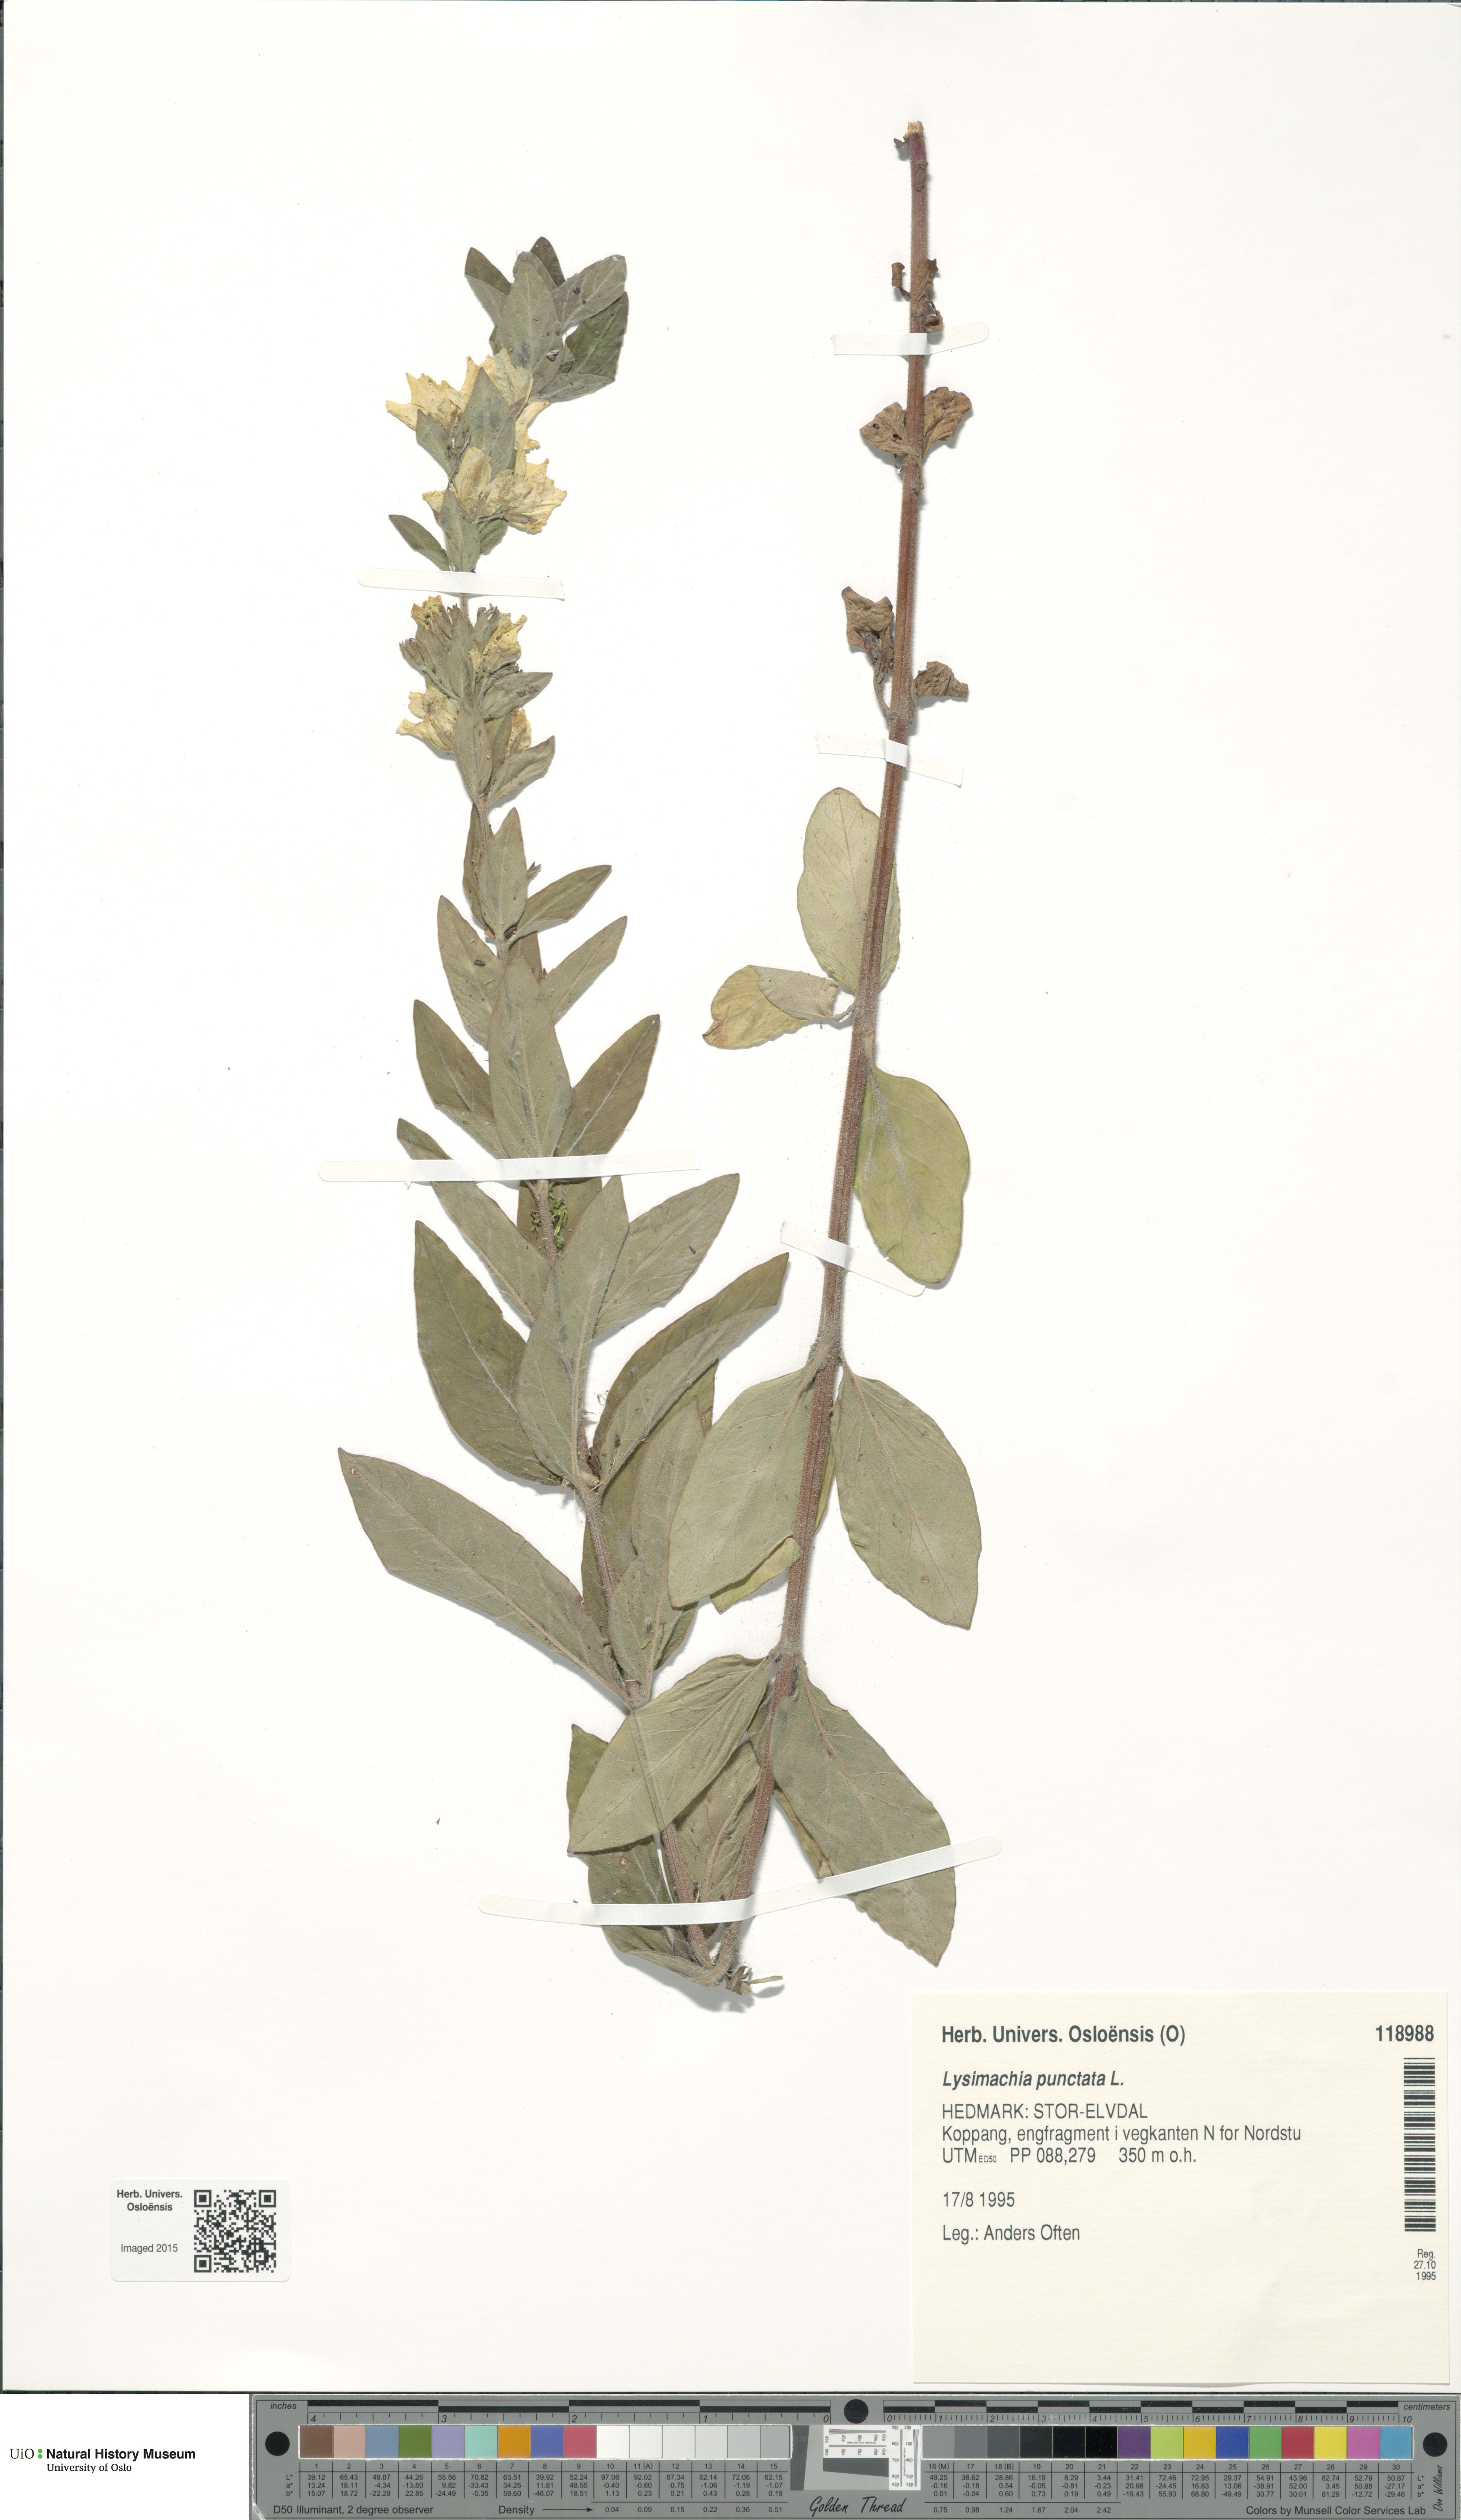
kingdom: Plantae
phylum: Tracheophyta
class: Magnoliopsida
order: Ericales
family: Primulaceae
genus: Lysimachia
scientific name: Lysimachia punctata
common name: Dotted loosestrife
